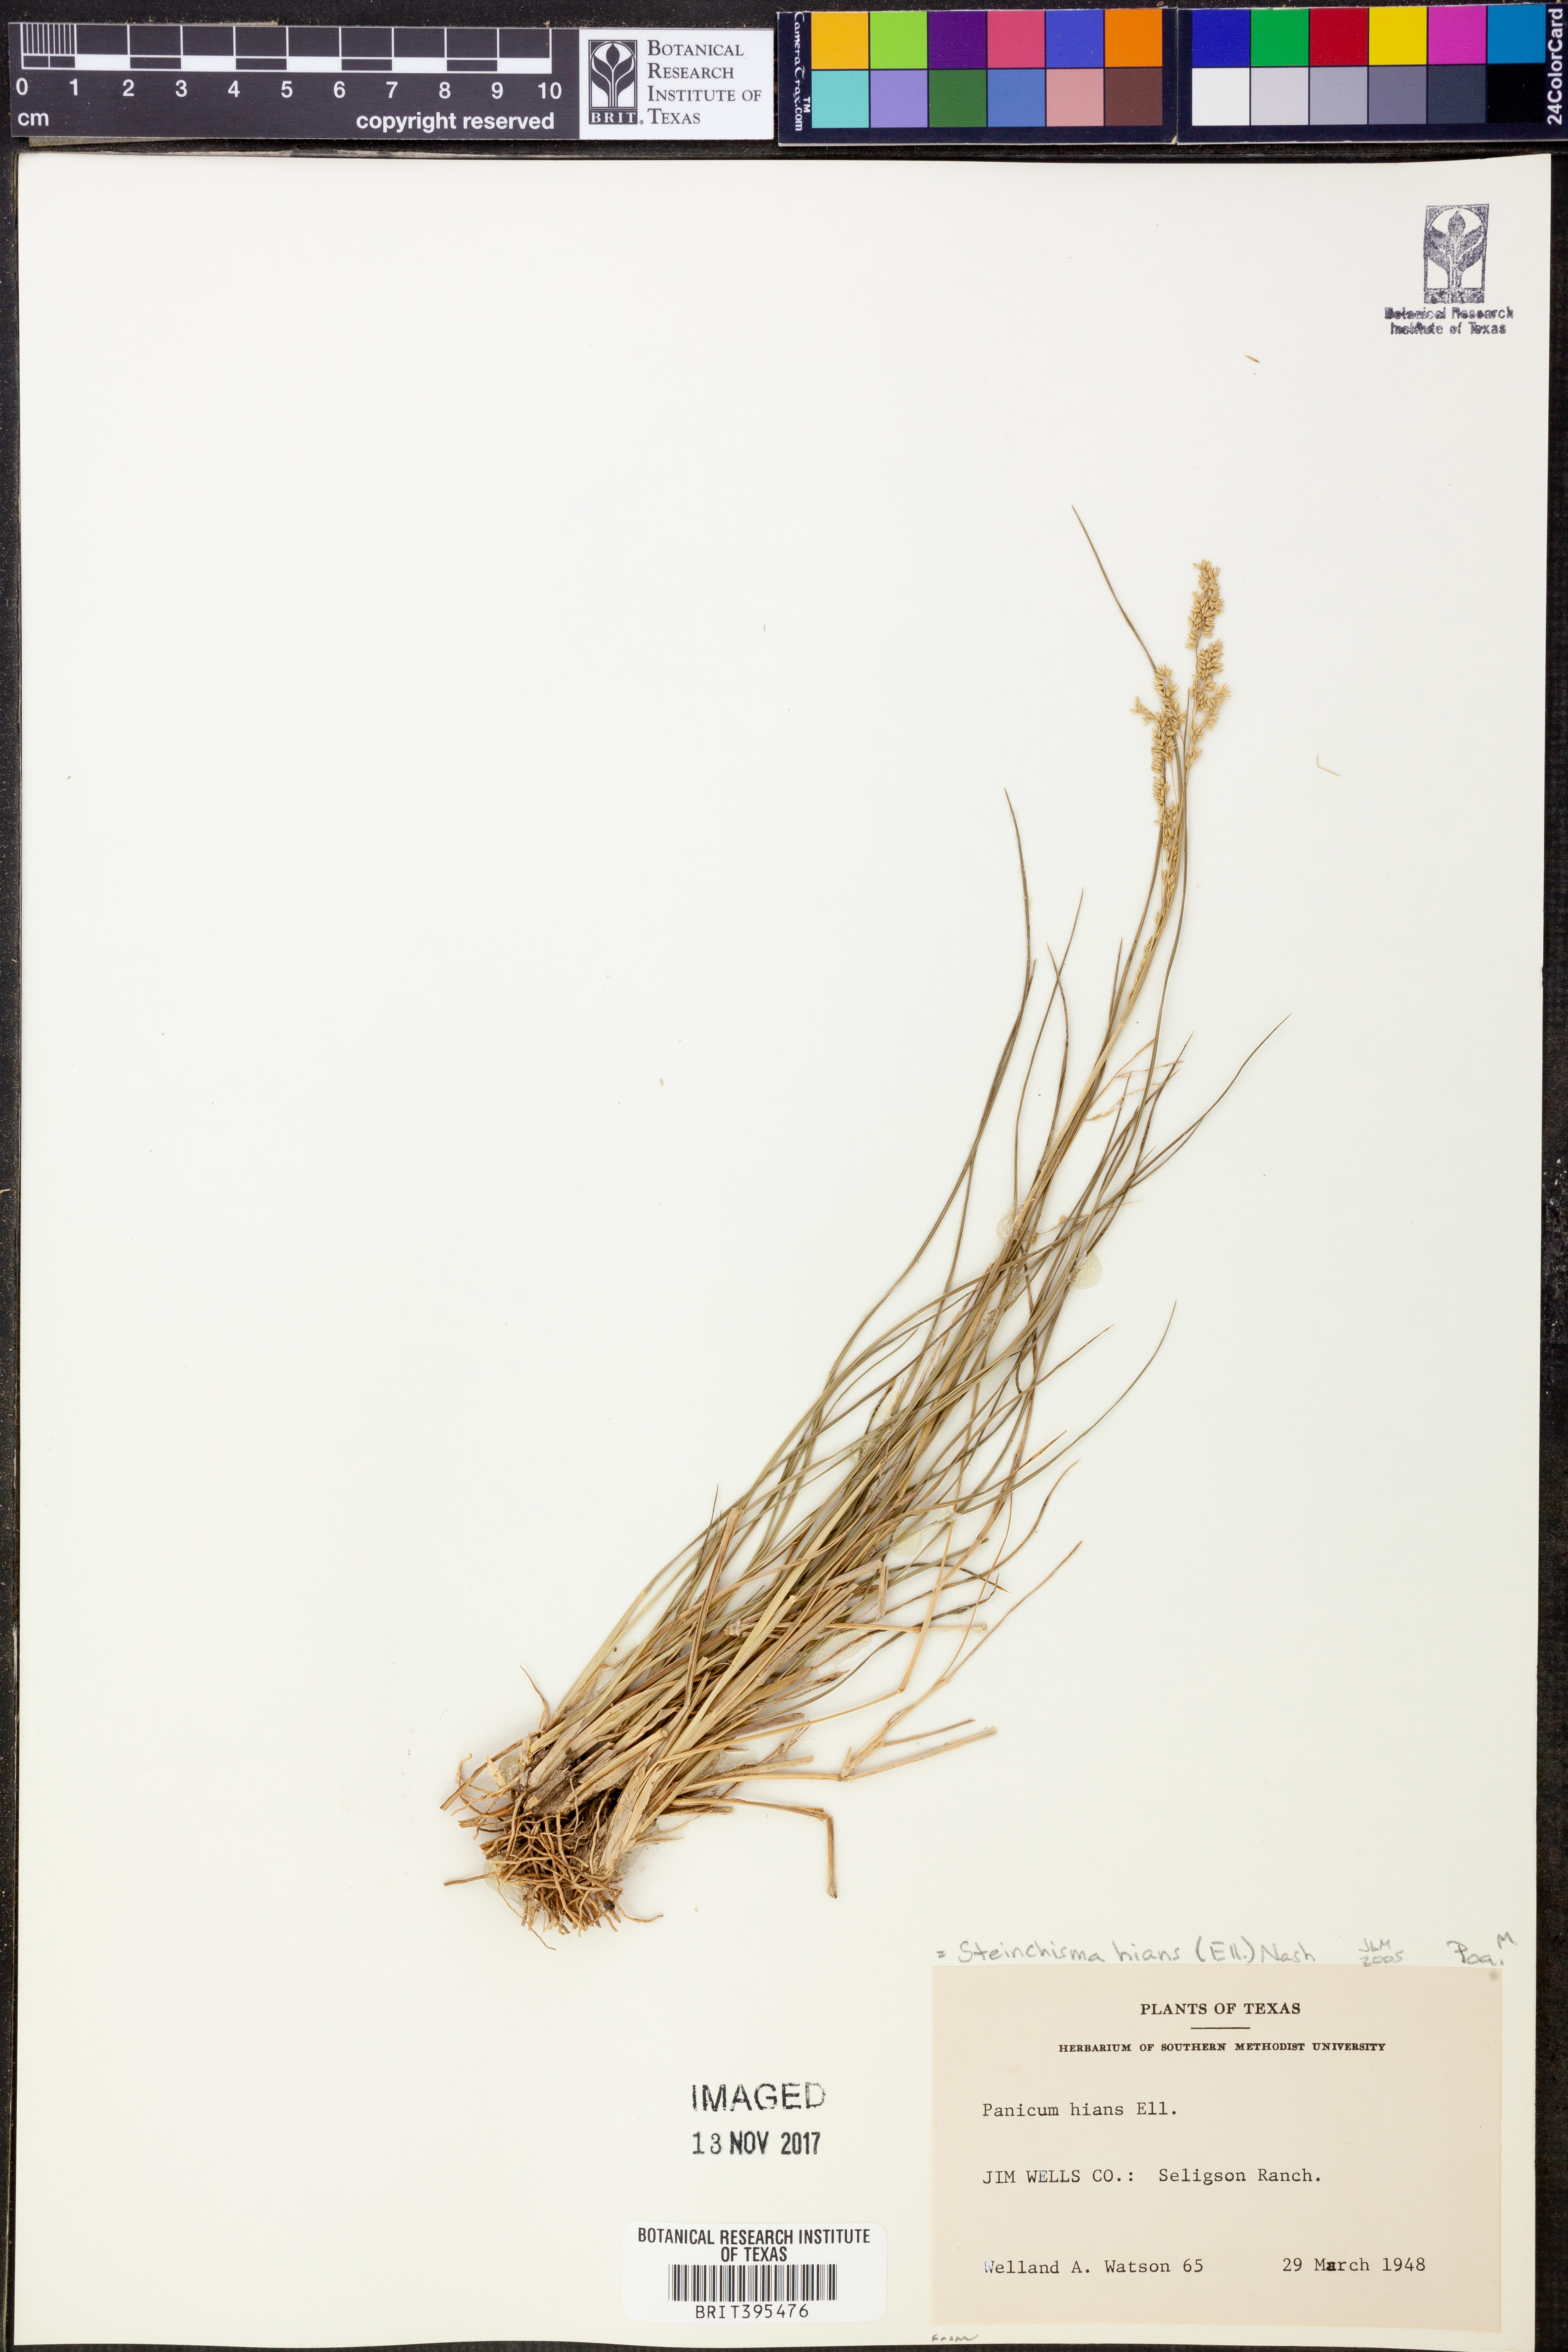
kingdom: Plantae
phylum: Tracheophyta
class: Liliopsida
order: Poales
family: Poaceae
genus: Coleataenia
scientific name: Coleataenia stenodes
